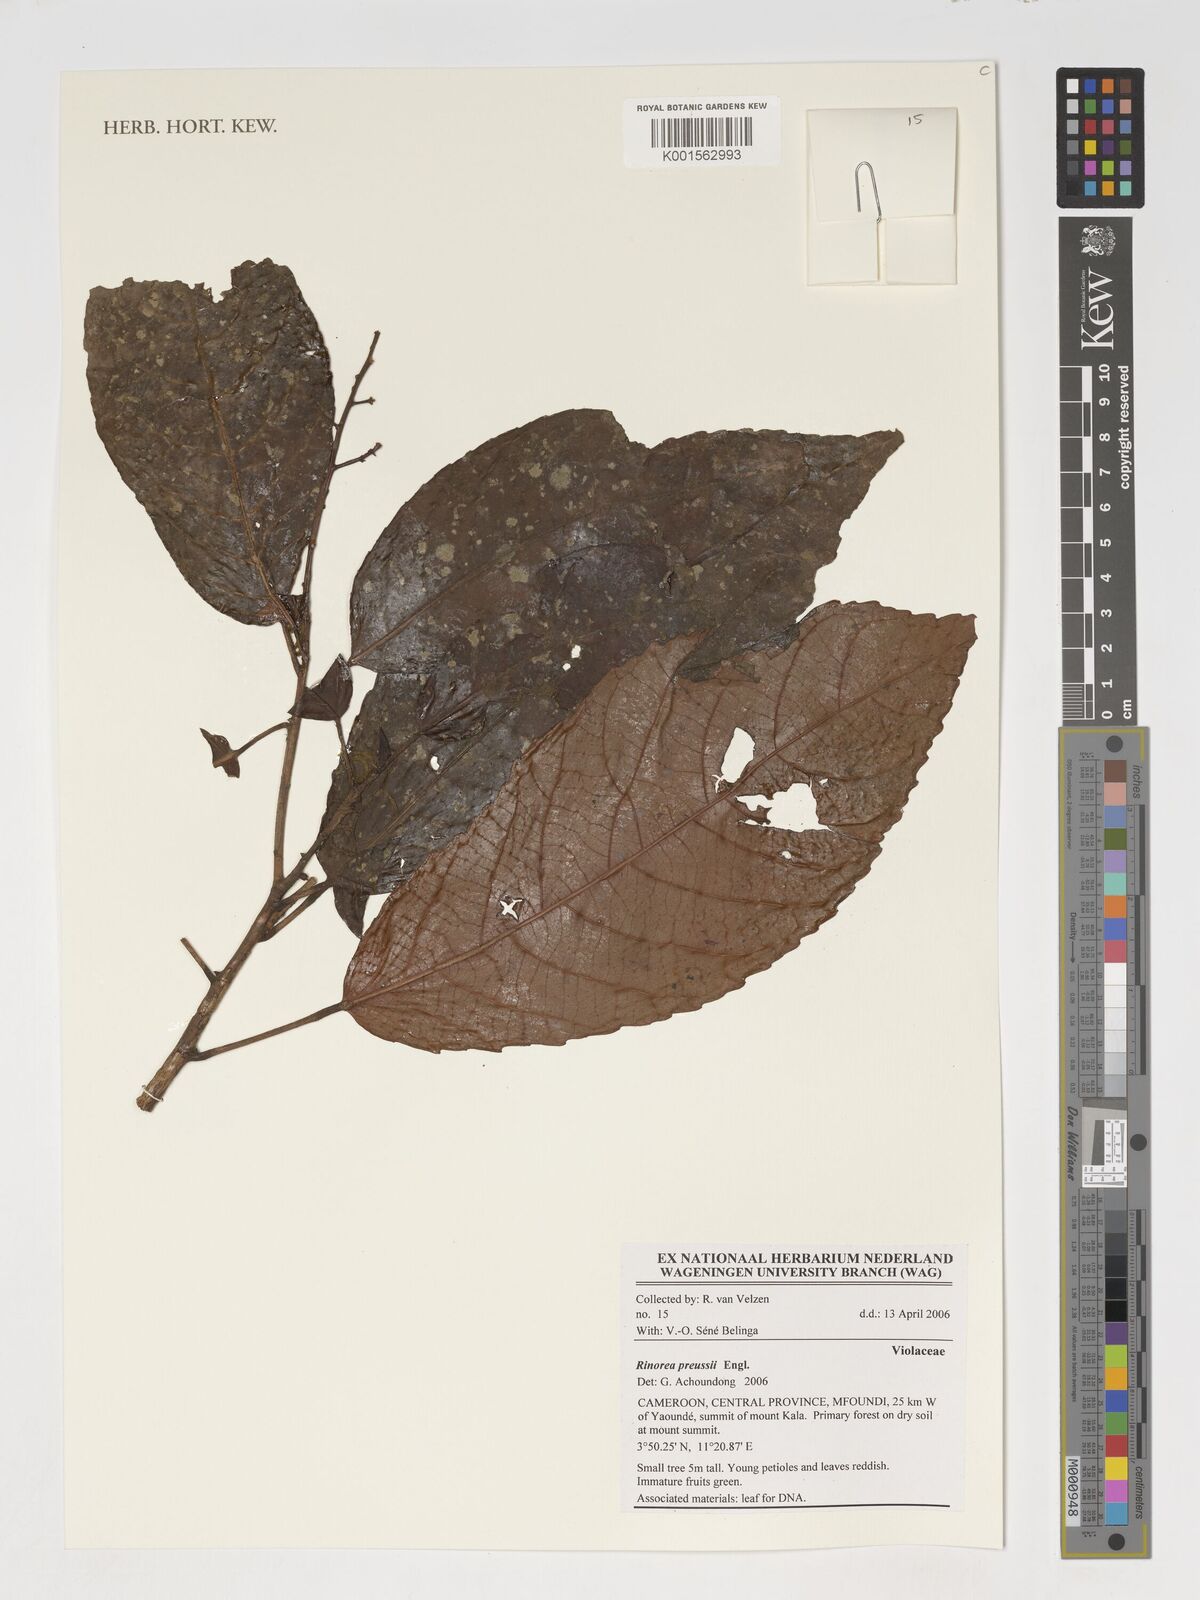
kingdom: Plantae
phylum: Tracheophyta
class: Magnoliopsida
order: Malpighiales
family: Violaceae
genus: Rinorea
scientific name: Rinorea preussii
